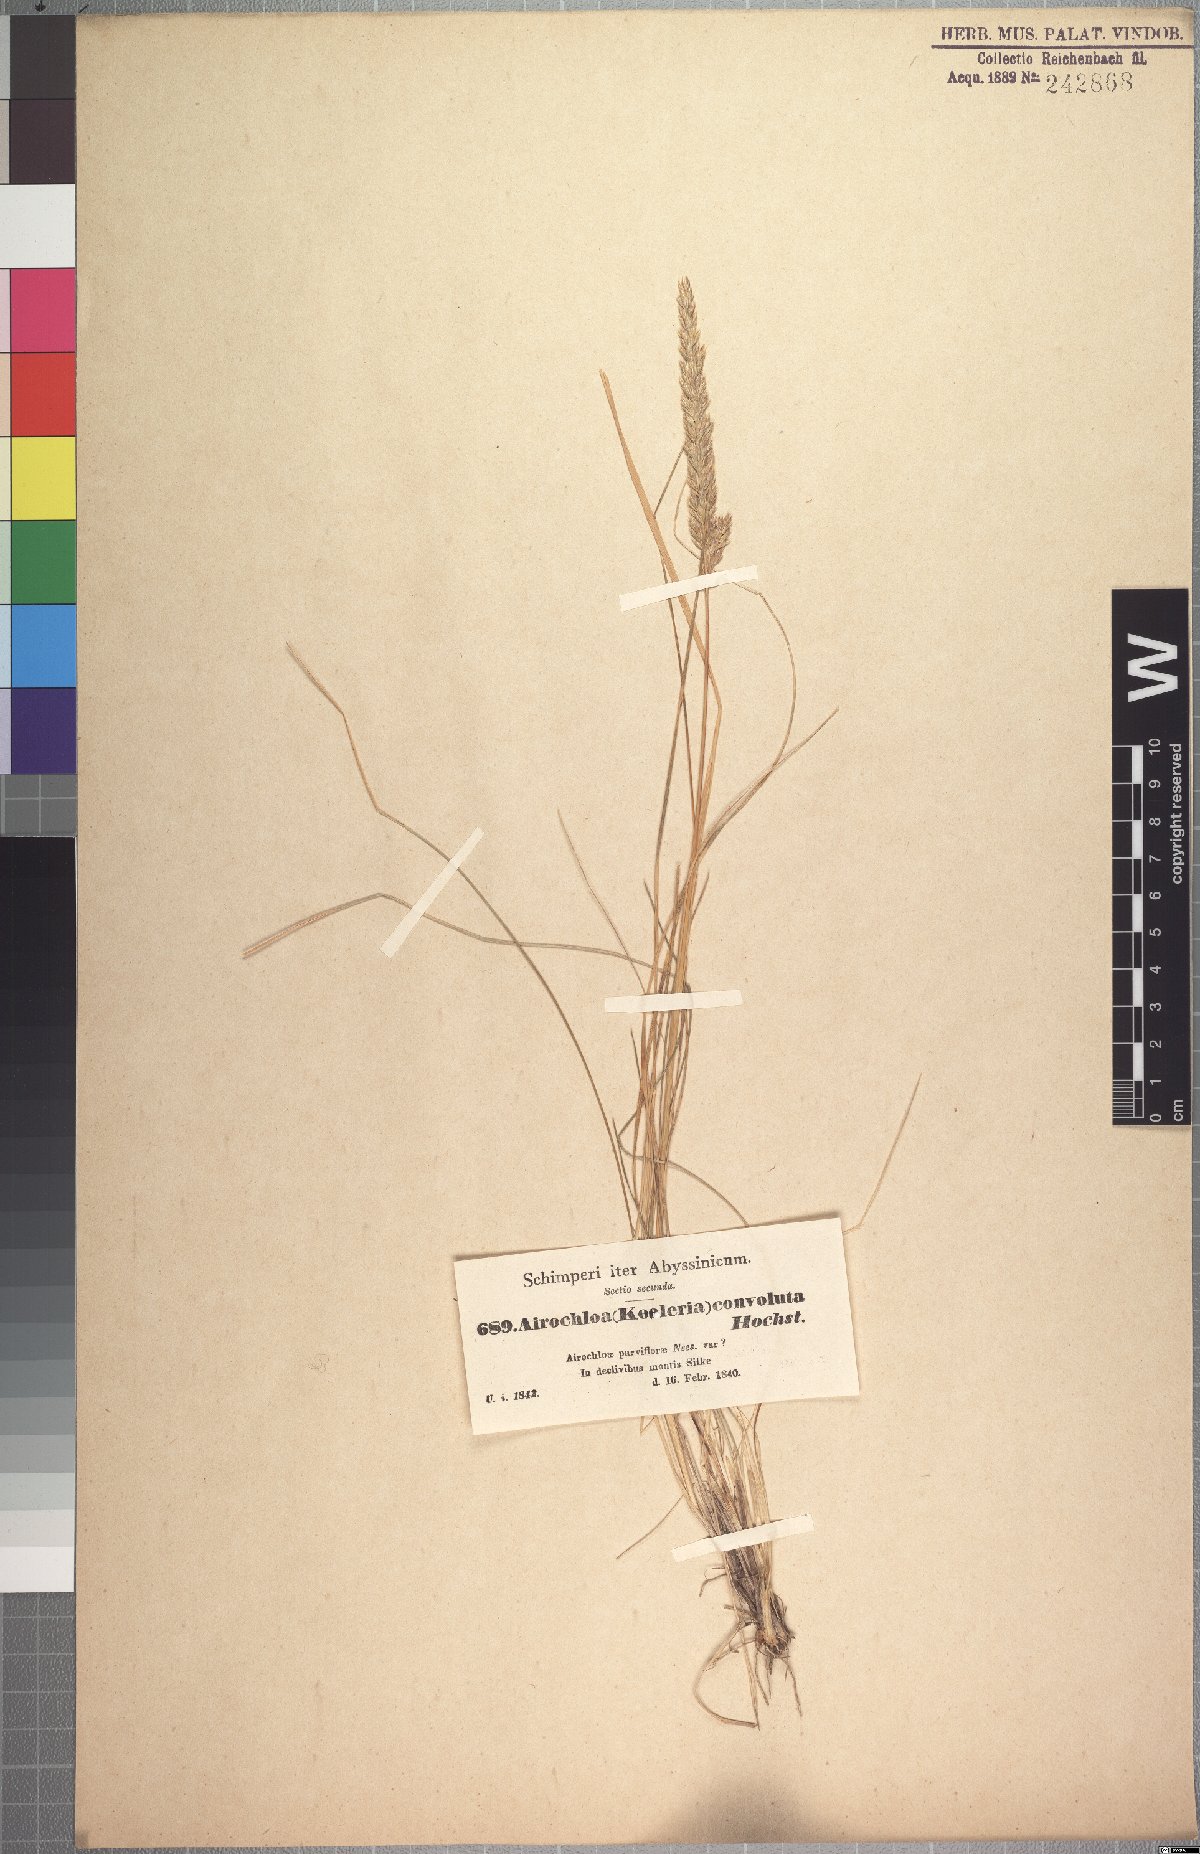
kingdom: Plantae
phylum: Tracheophyta
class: Liliopsida
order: Poales
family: Poaceae
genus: Koeleria
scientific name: Koeleria capensis
